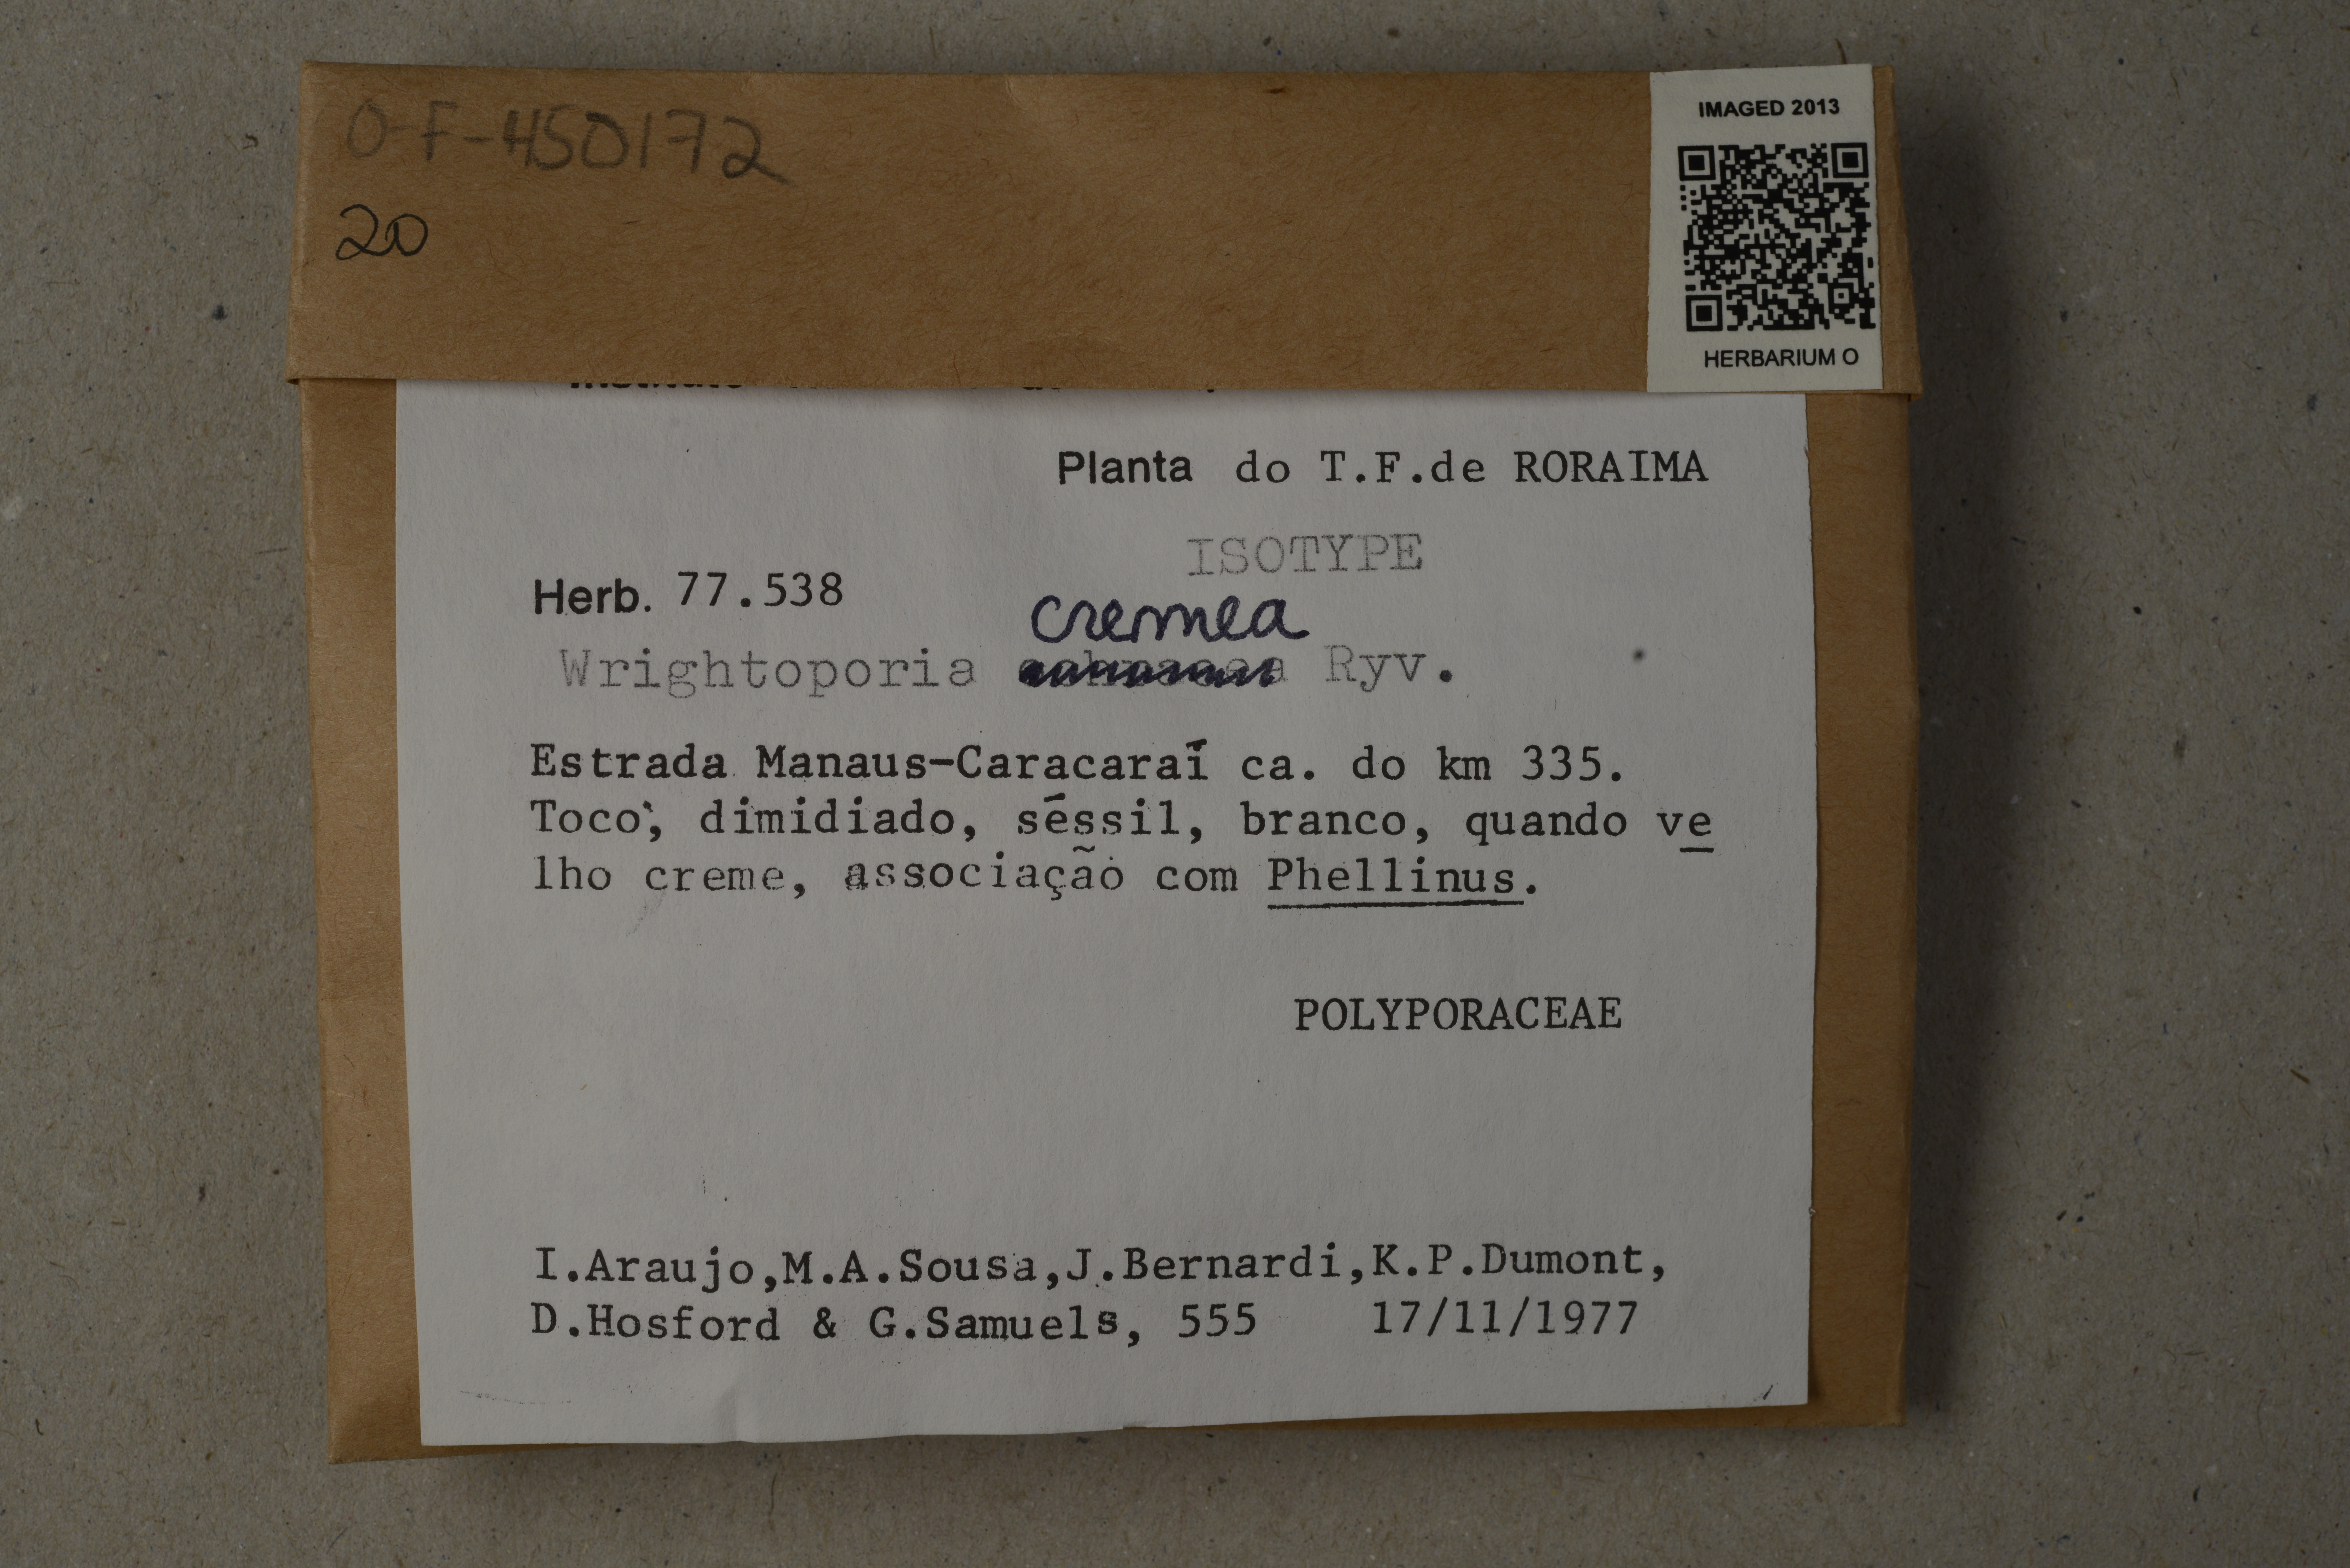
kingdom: Fungi
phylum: Basidiomycota
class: Agaricomycetes
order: Russulales
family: Bondarzewiaceae
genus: Wrightoporia
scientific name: Wrightoporia cremea
